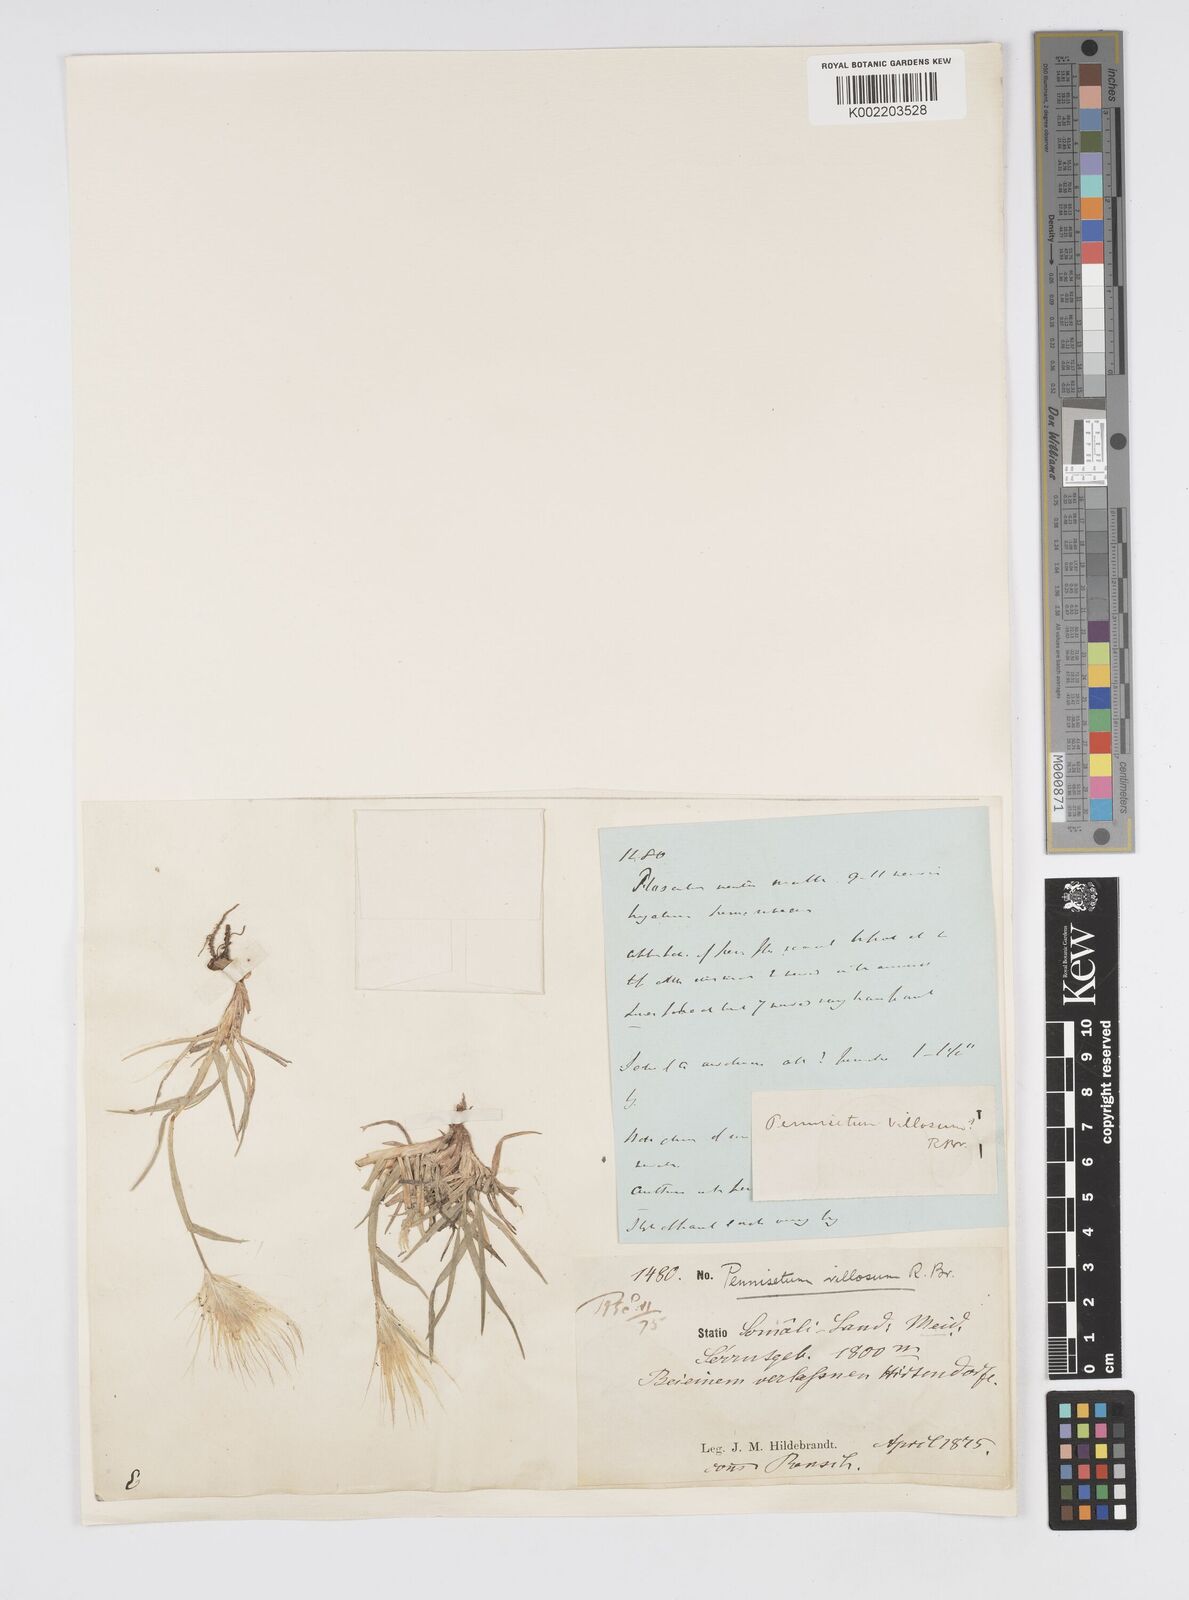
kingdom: Plantae
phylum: Tracheophyta
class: Liliopsida
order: Poales
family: Poaceae
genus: Cenchrus
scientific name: Cenchrus longisetus
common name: Feathertop
